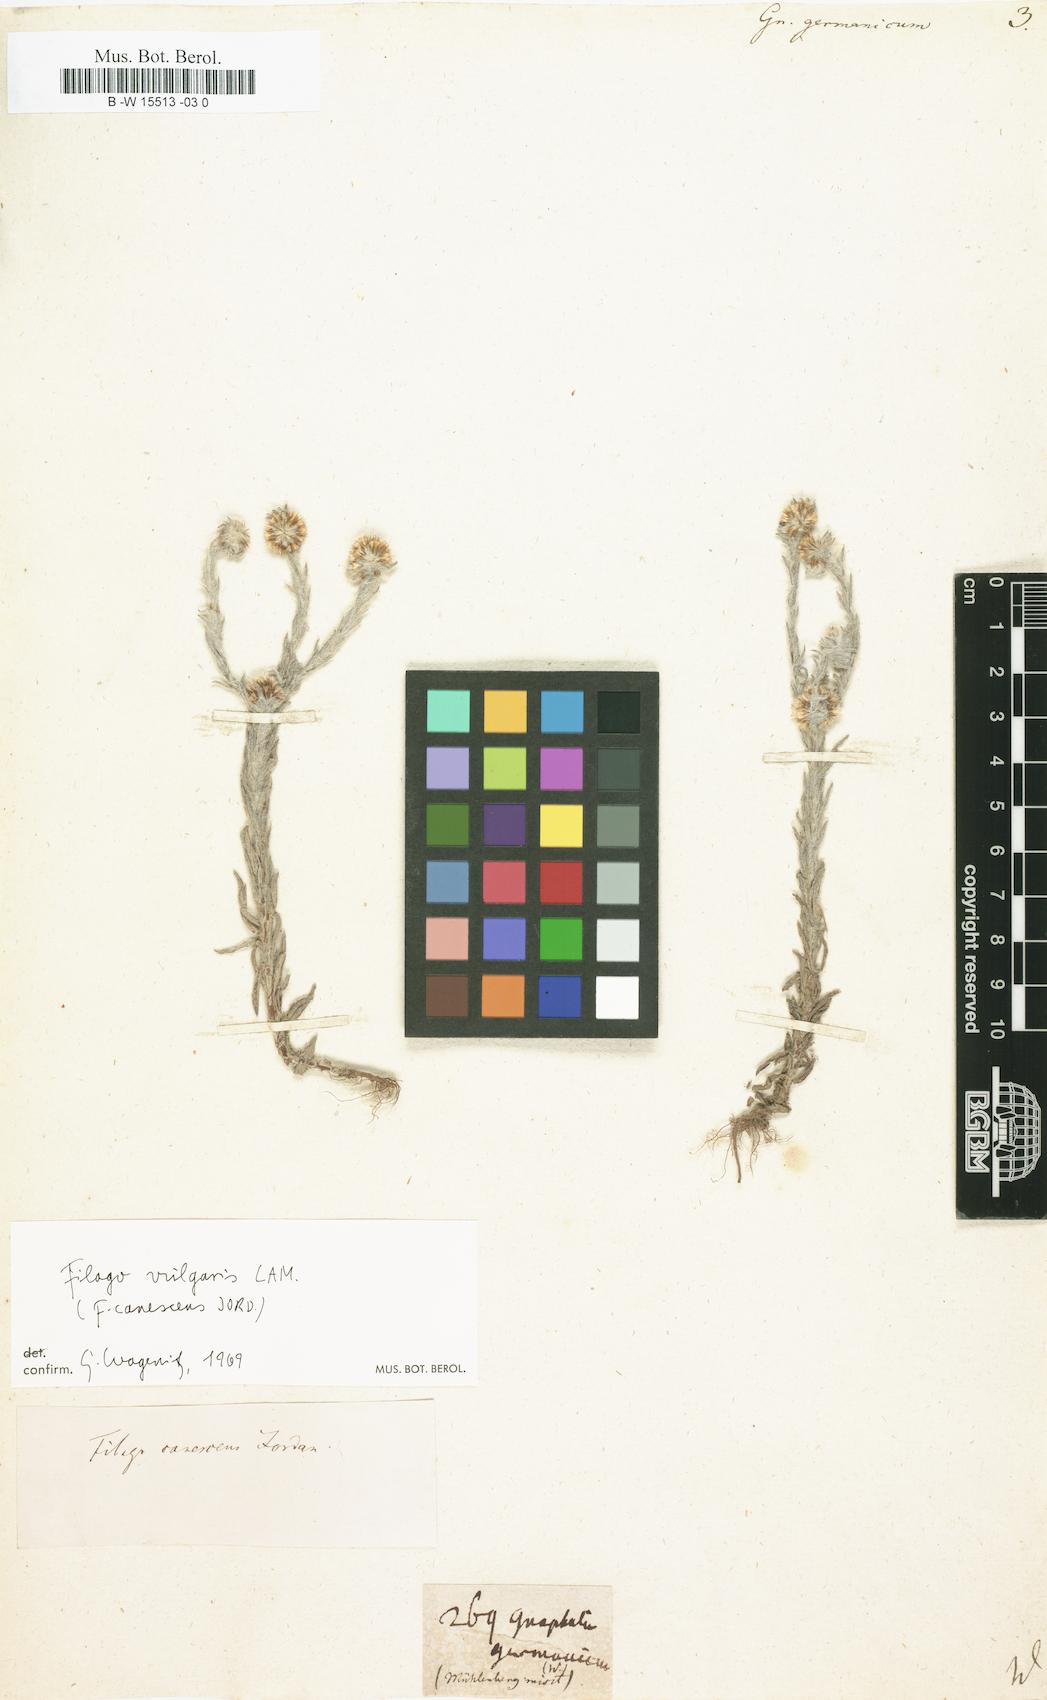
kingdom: Plantae
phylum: Tracheophyta
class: Magnoliopsida
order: Asterales
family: Asteraceae
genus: Filago
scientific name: Filago germanica
